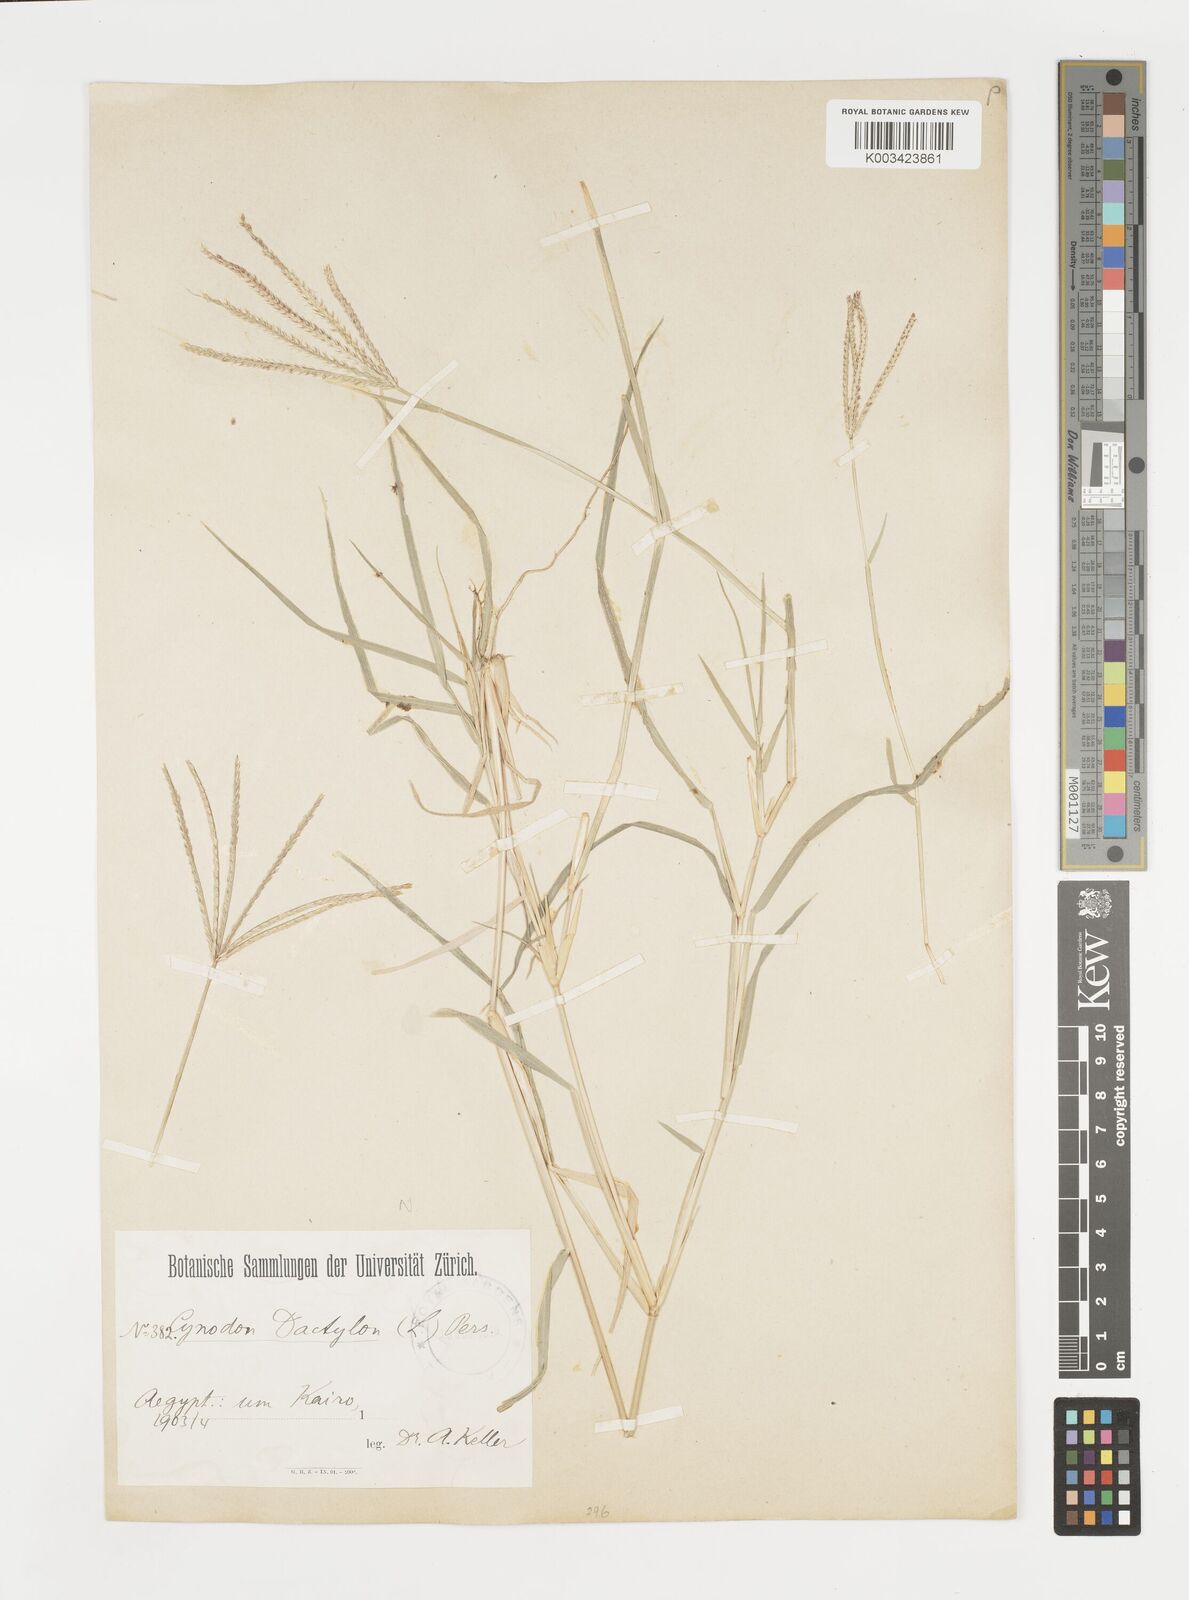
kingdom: Plantae
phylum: Tracheophyta
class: Liliopsida
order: Poales
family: Poaceae
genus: Cynodon
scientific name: Cynodon dactylon
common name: Bermuda grass
